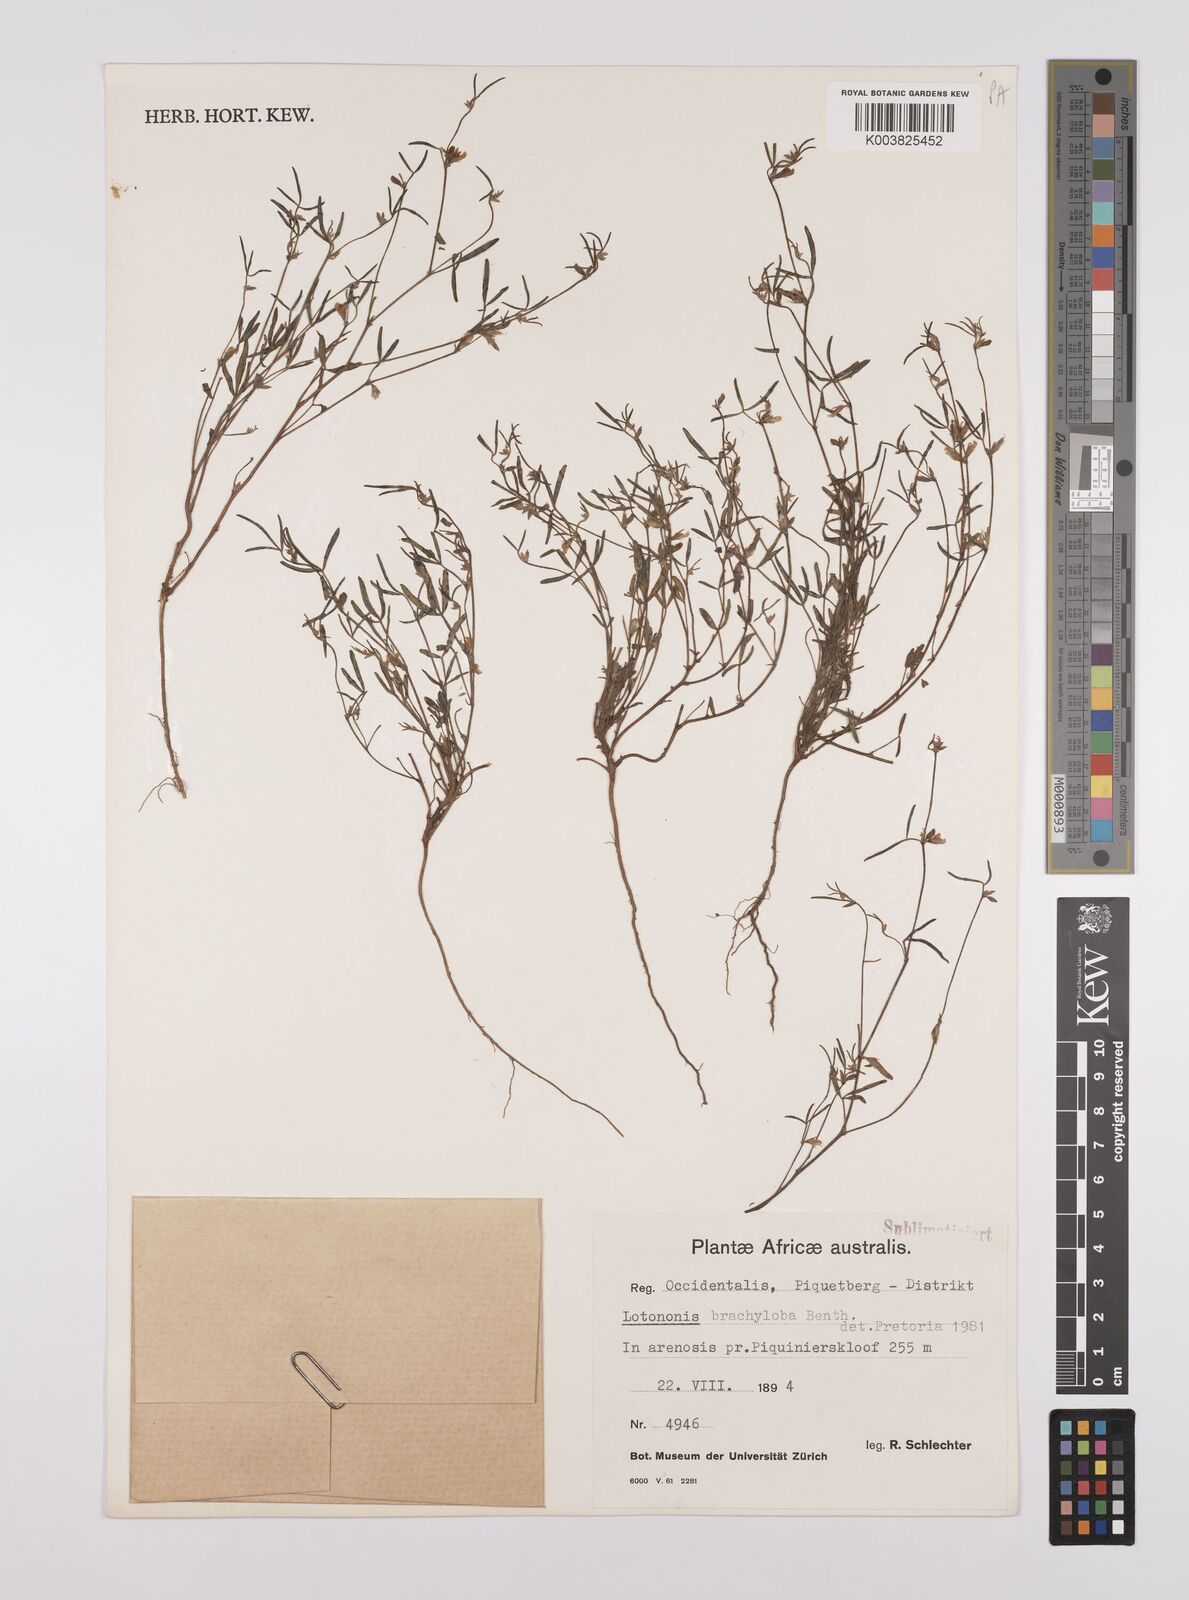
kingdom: Plantae
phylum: Tracheophyta
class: Magnoliopsida
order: Fabales
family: Fabaceae
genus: Lotononis
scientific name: Lotononis parviflora
